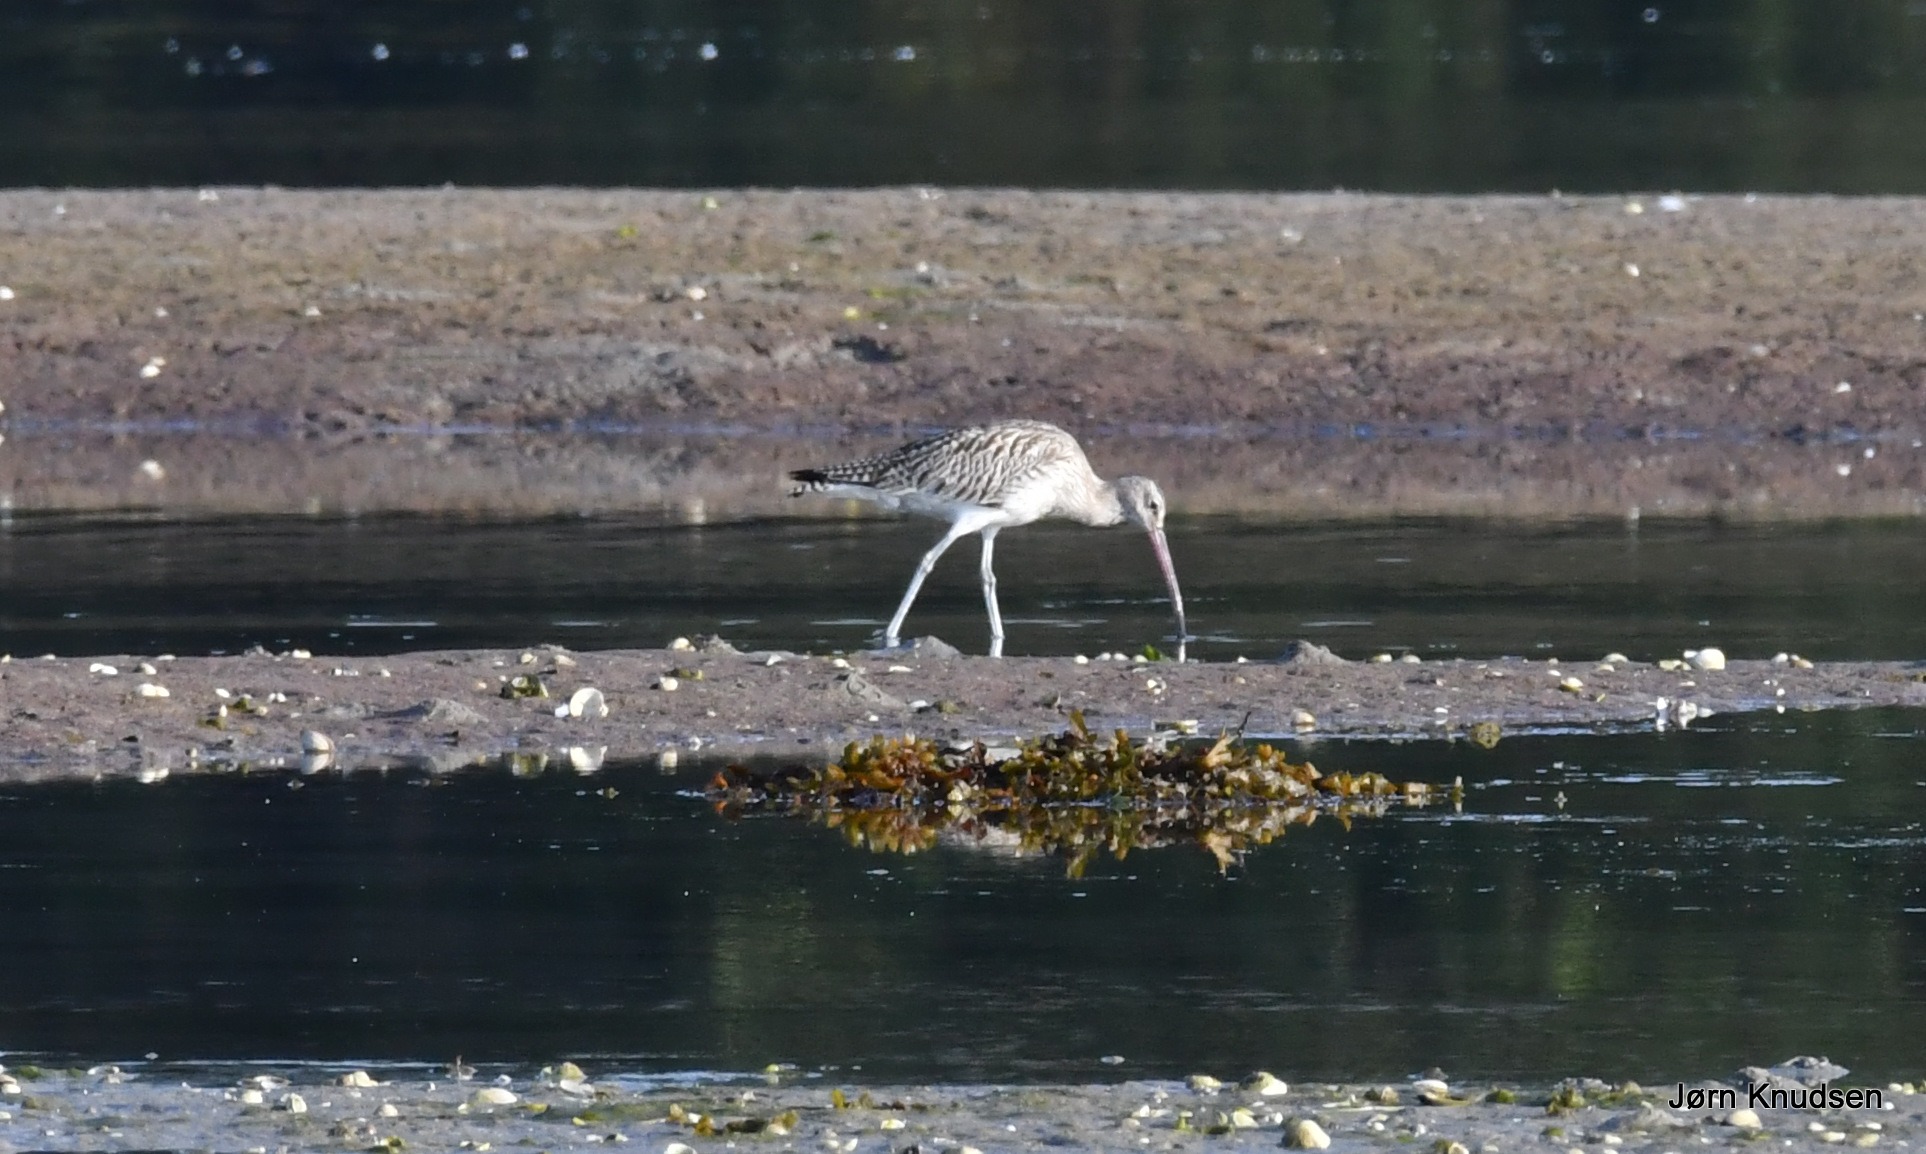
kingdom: Animalia
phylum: Chordata
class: Aves
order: Charadriiformes
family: Scolopacidae
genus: Numenius
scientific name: Numenius arquata
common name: Storspove
